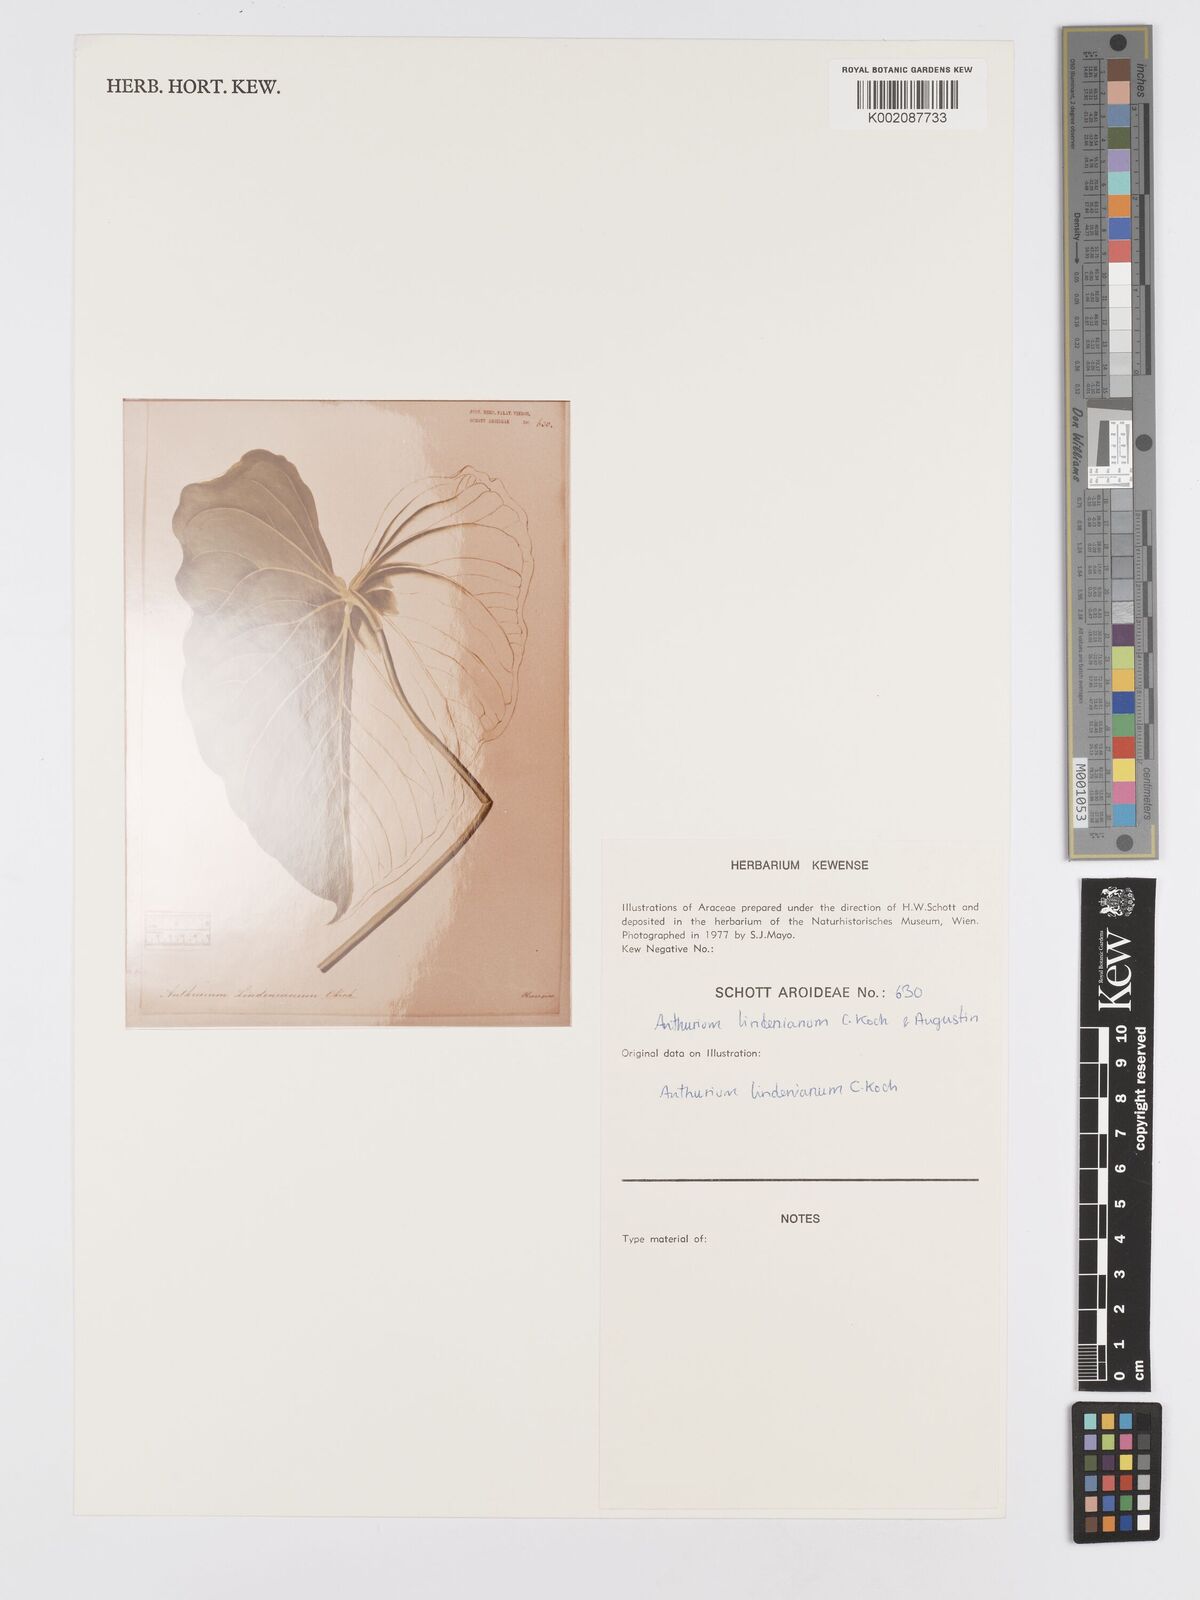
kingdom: Plantae
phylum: Tracheophyta
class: Liliopsida
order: Alismatales
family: Araceae
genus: Anthurium
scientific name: Anthurium lindenianum
